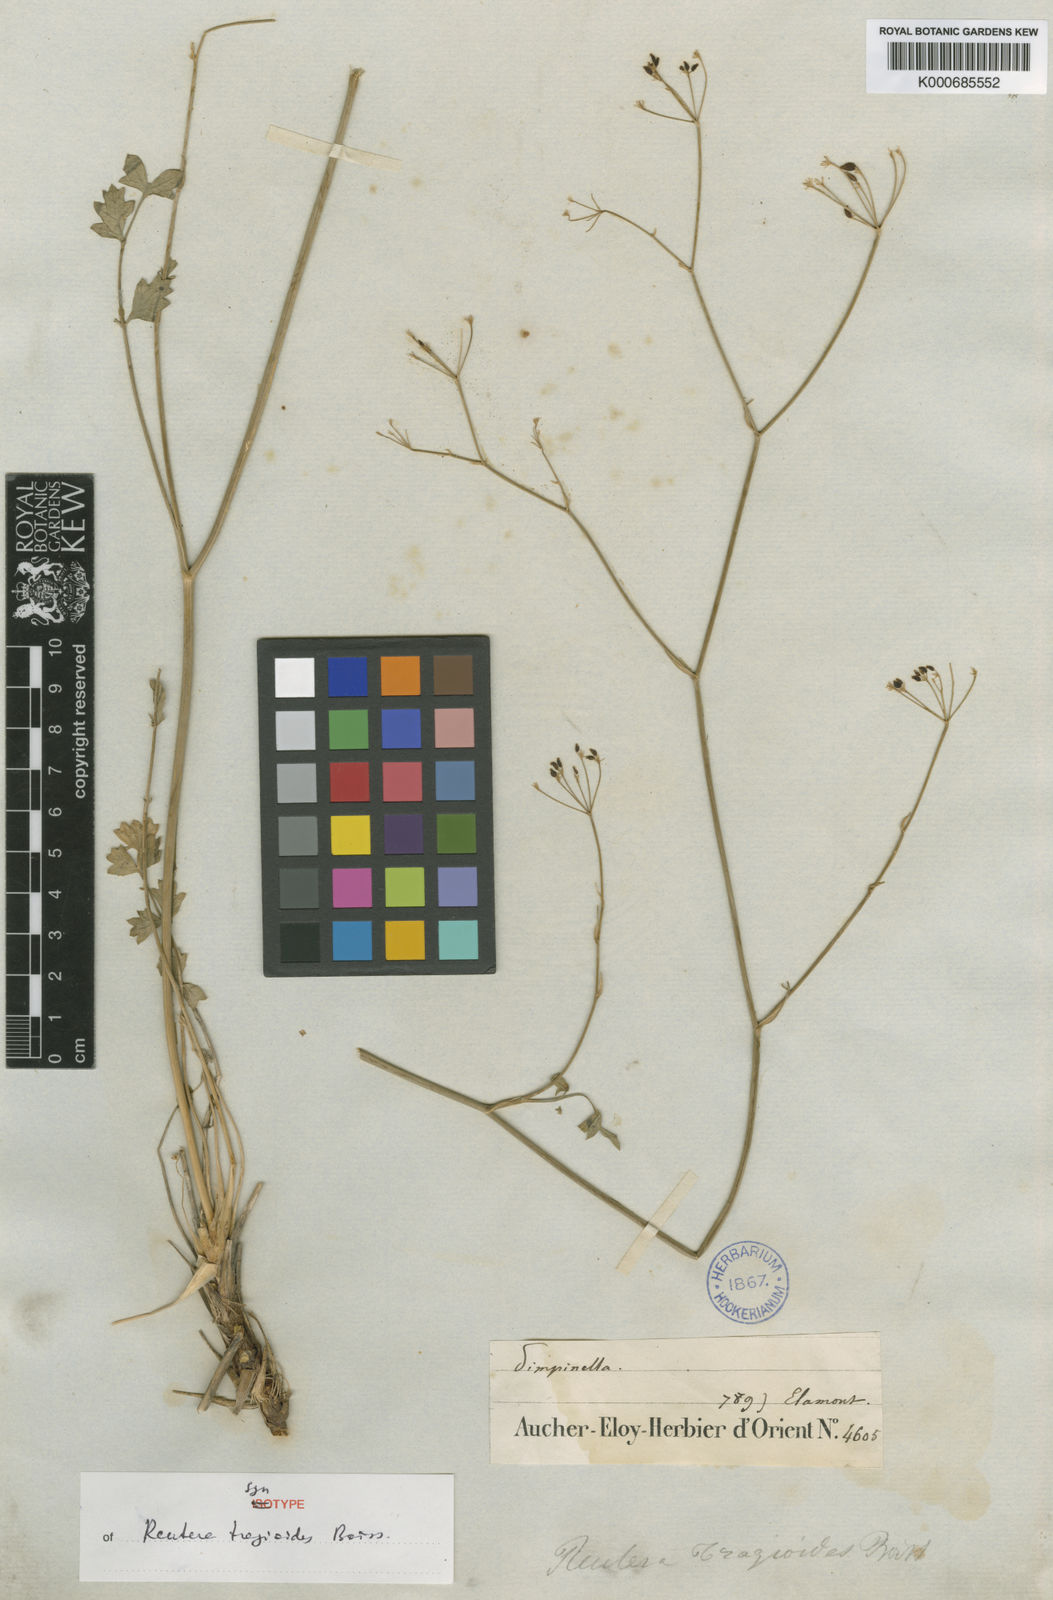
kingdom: Plantae
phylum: Tracheophyta
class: Magnoliopsida
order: Apiales
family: Apiaceae
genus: Pimpinella
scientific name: Pimpinella
